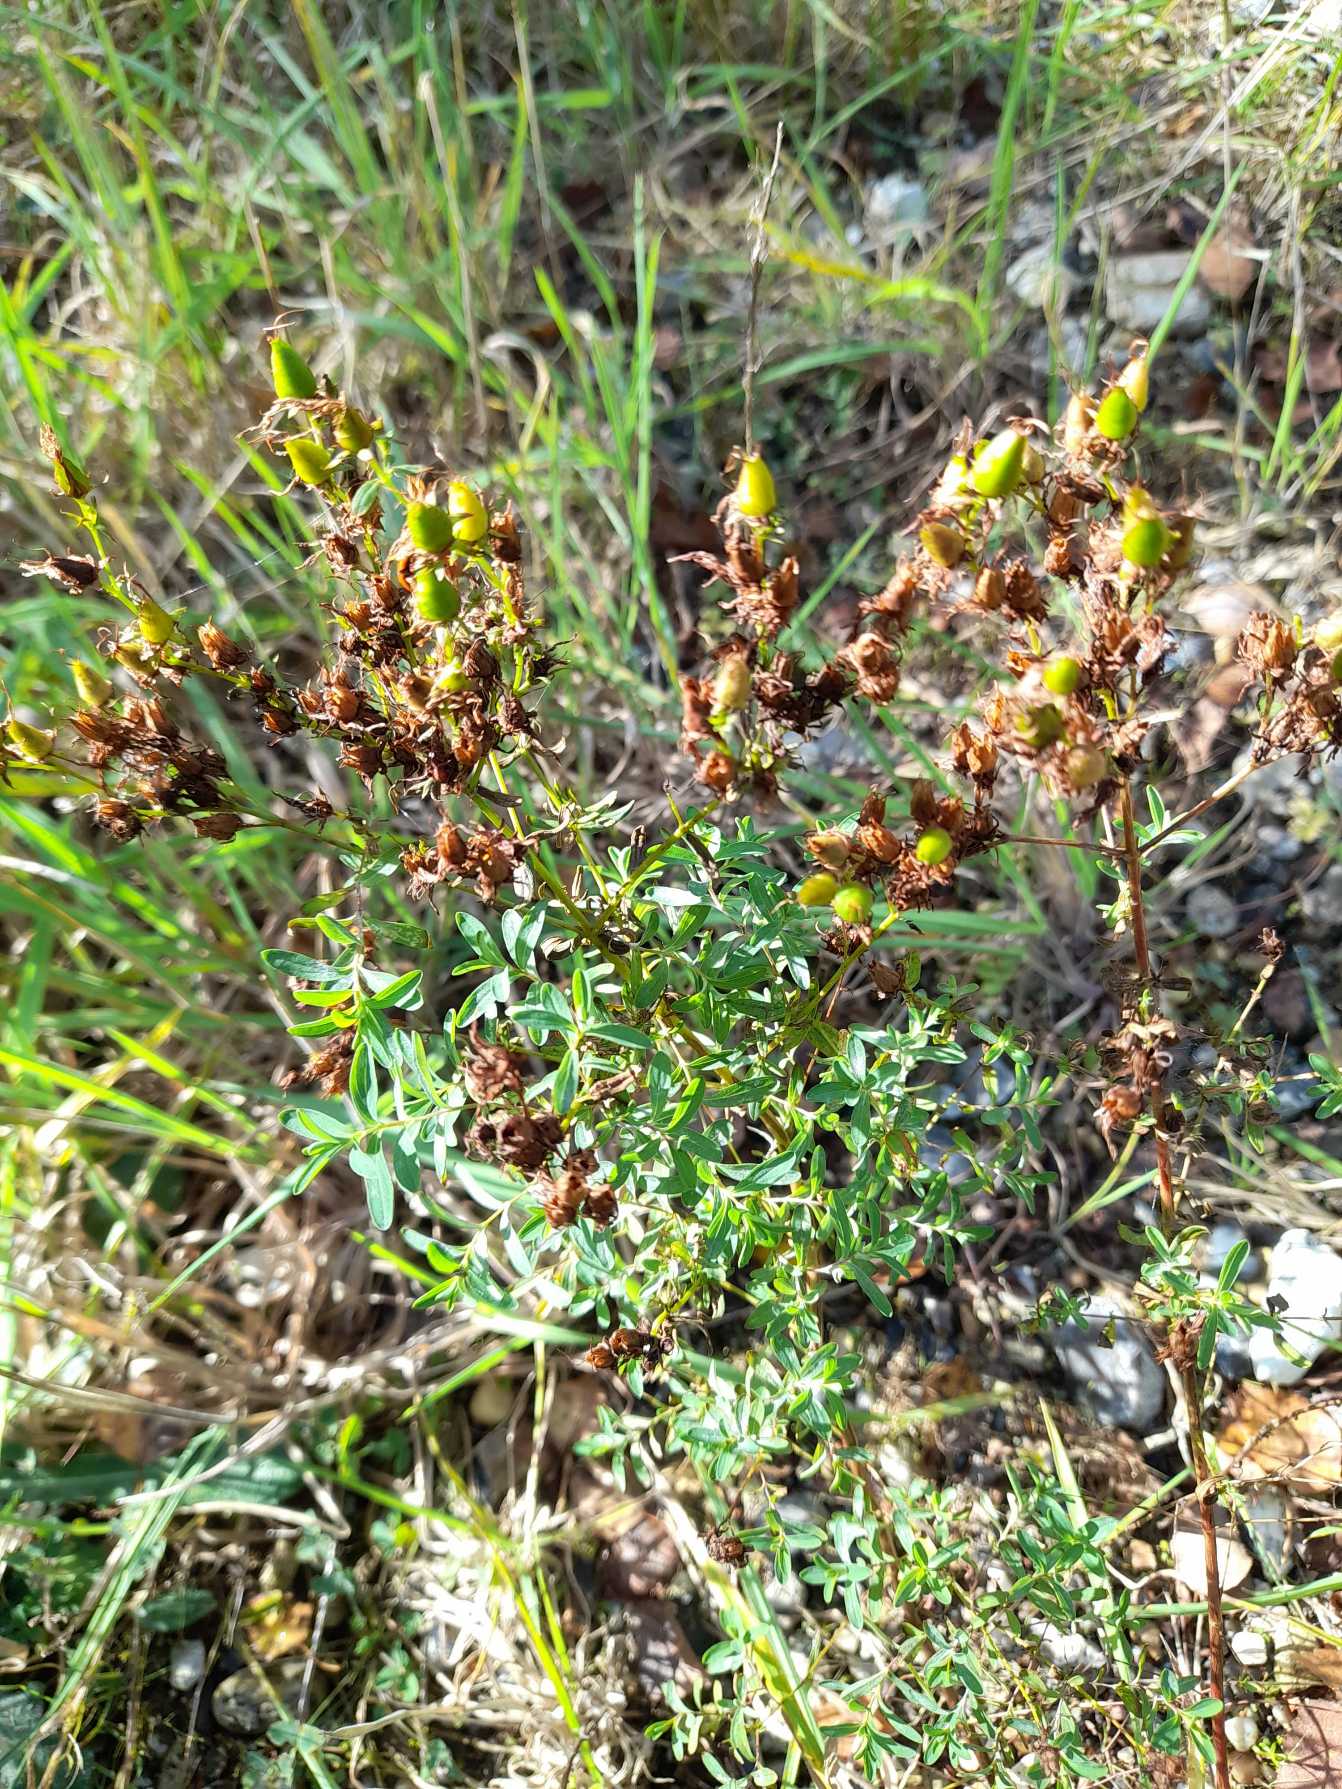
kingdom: Plantae
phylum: Tracheophyta
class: Magnoliopsida
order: Malpighiales
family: Hypericaceae
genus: Hypericum
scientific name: Hypericum perforatum
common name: Prikbladet perikon
